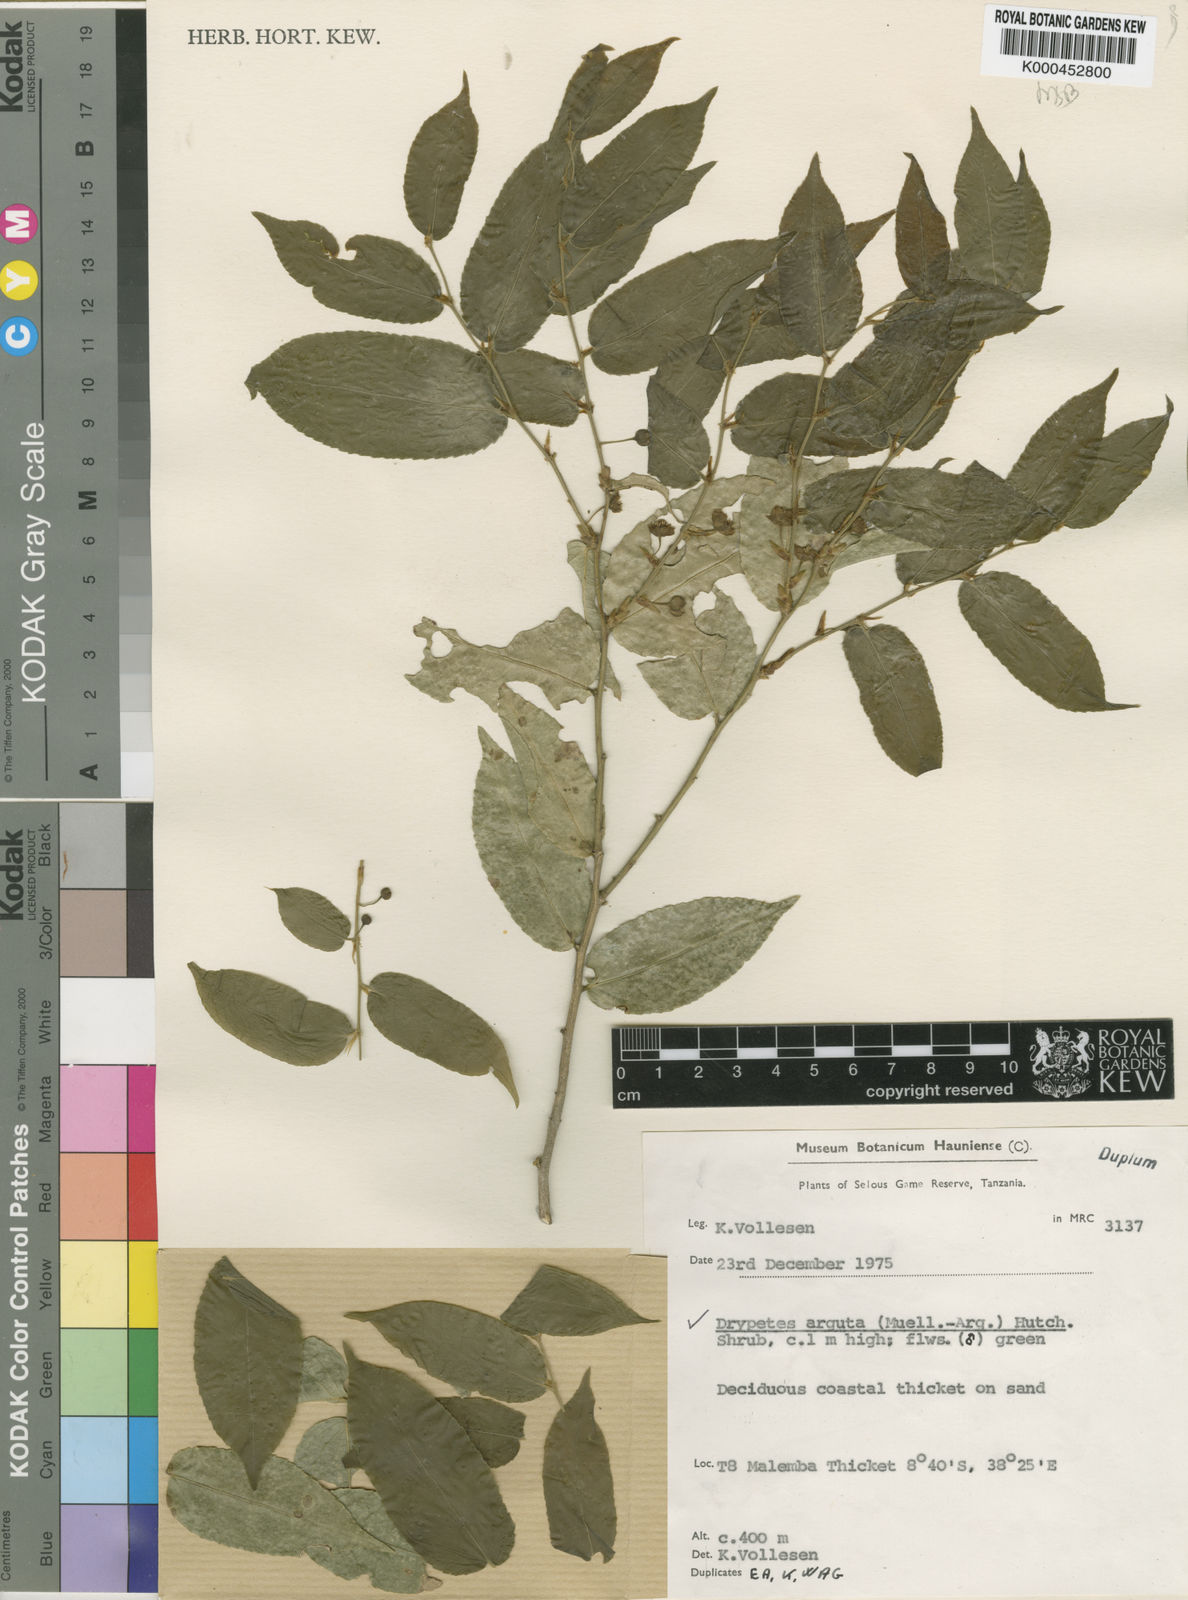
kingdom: Plantae
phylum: Tracheophyta
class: Magnoliopsida
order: Malpighiales
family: Putranjivaceae
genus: Drypetes
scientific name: Drypetes
